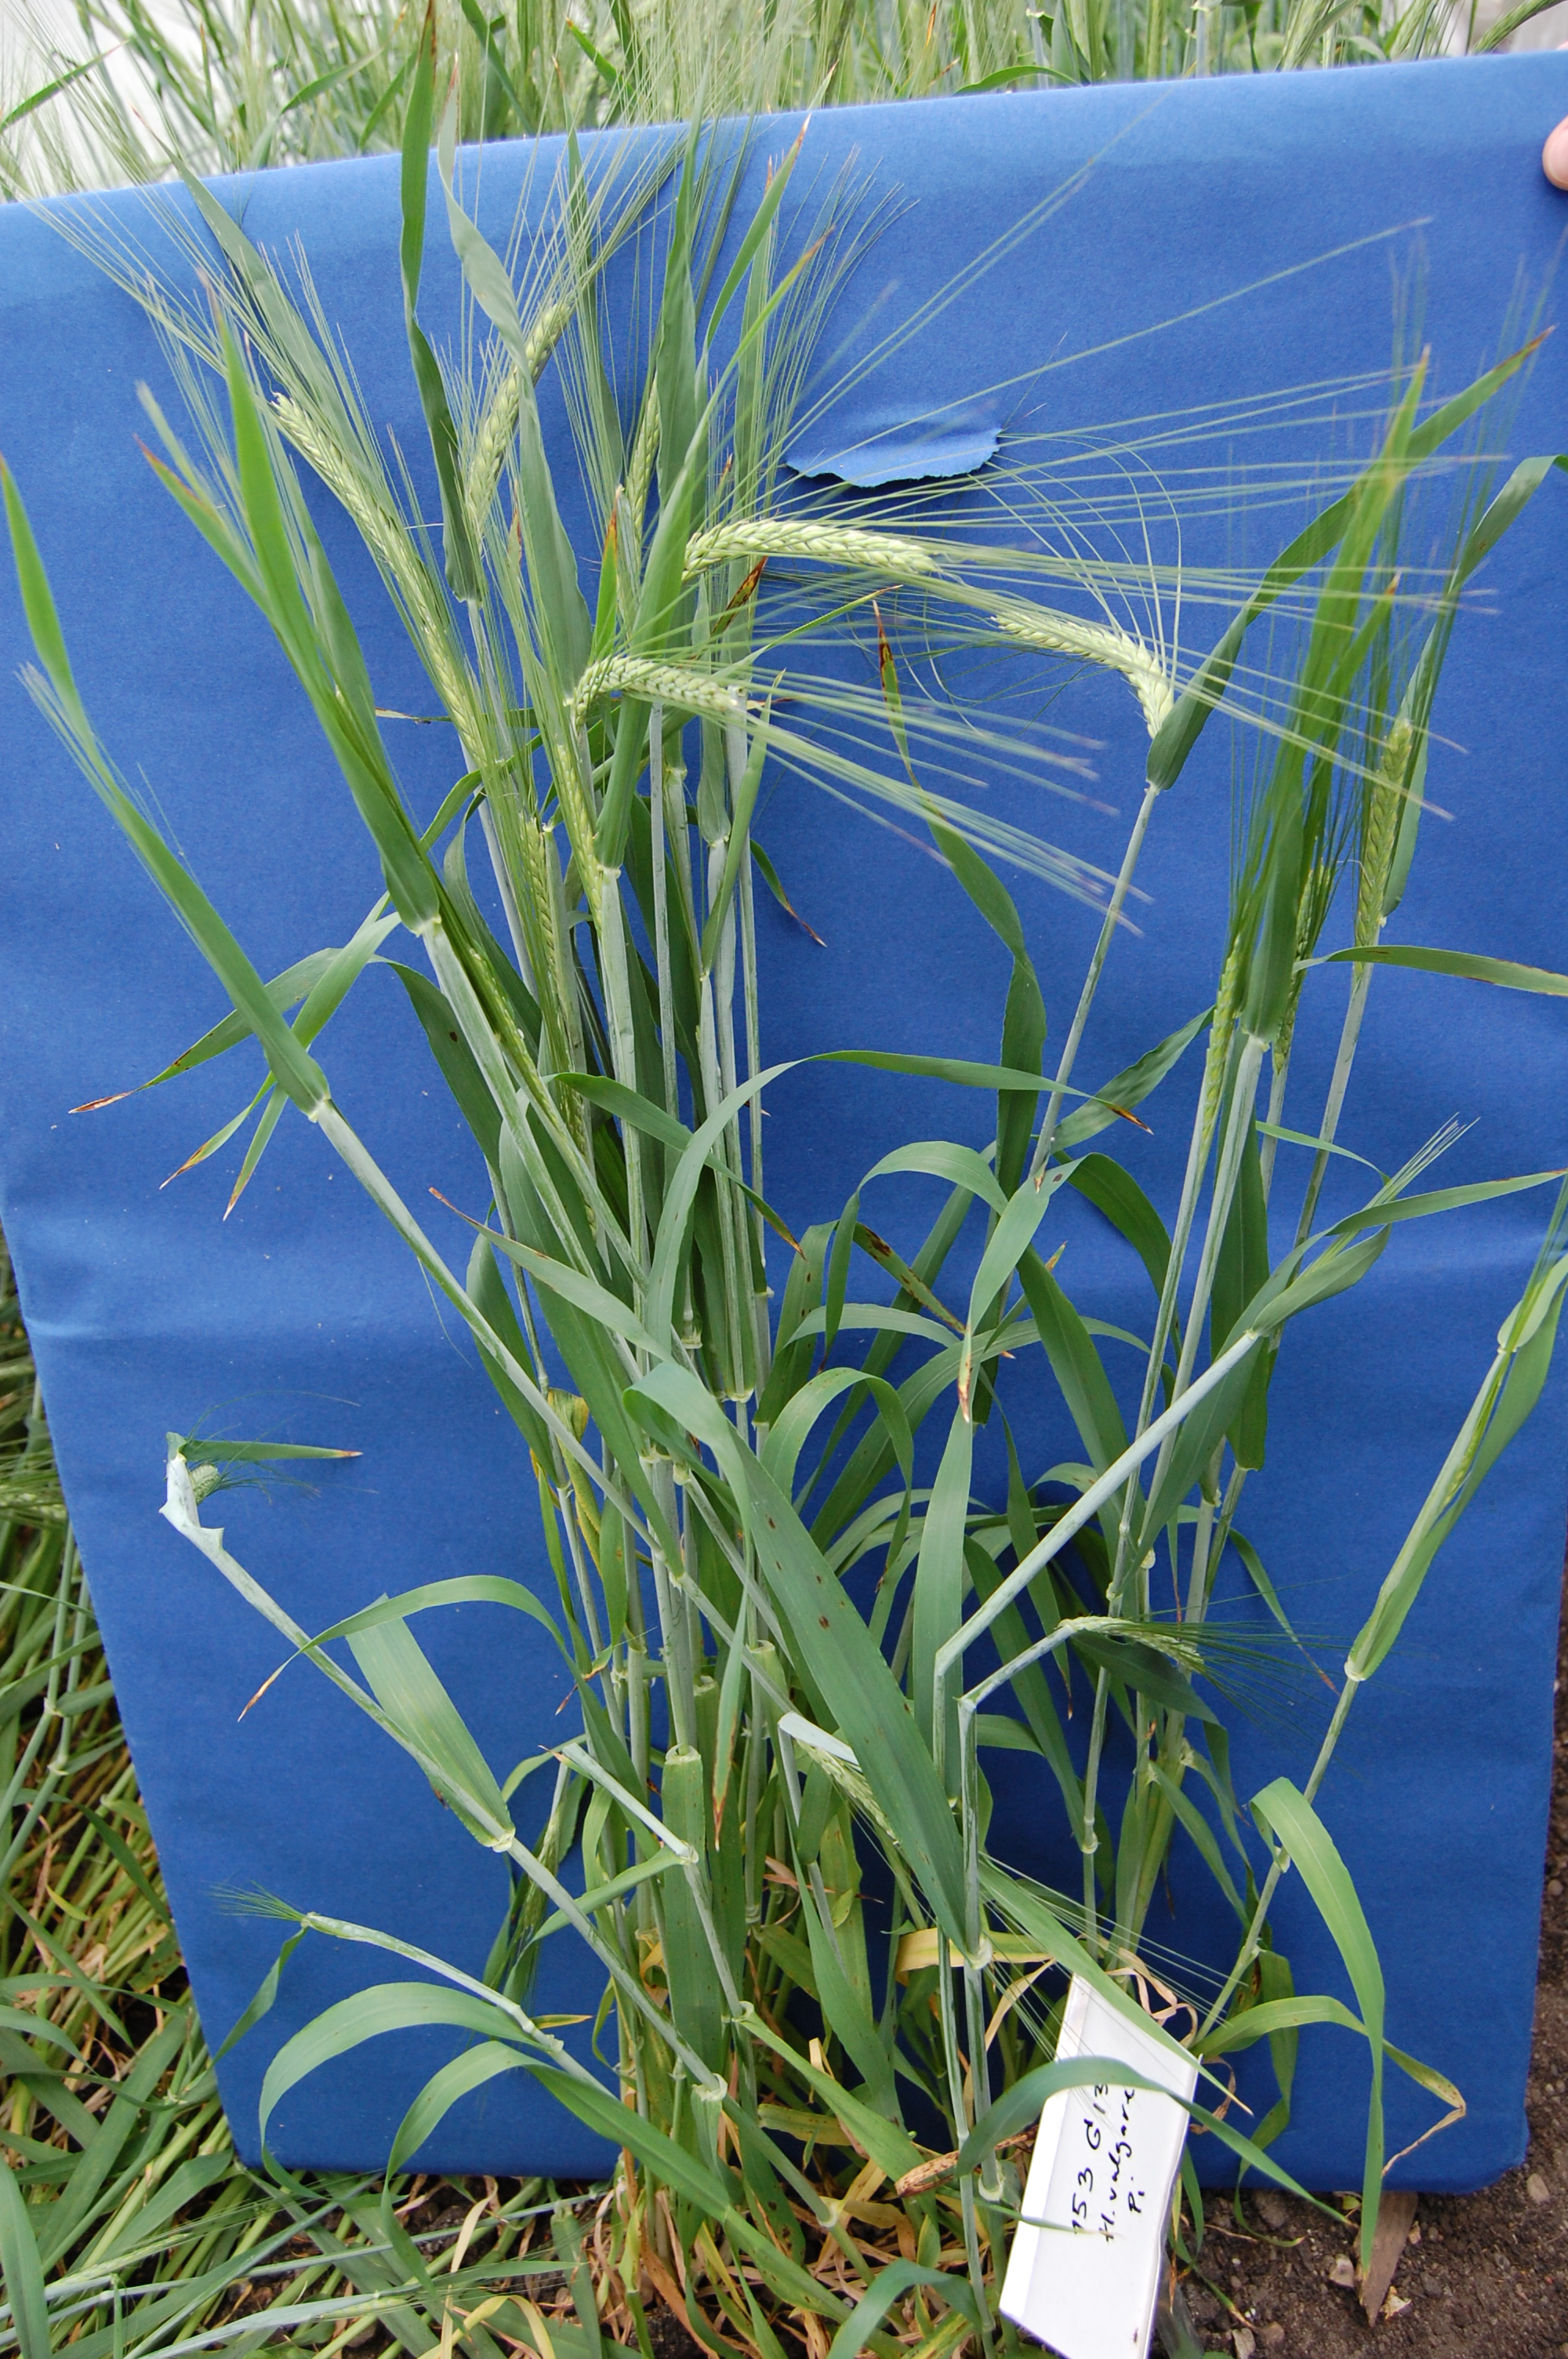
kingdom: Plantae
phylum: Tracheophyta
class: Liliopsida
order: Poales
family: Poaceae
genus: Hordeum
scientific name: Hordeum vulgare
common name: Common barley
